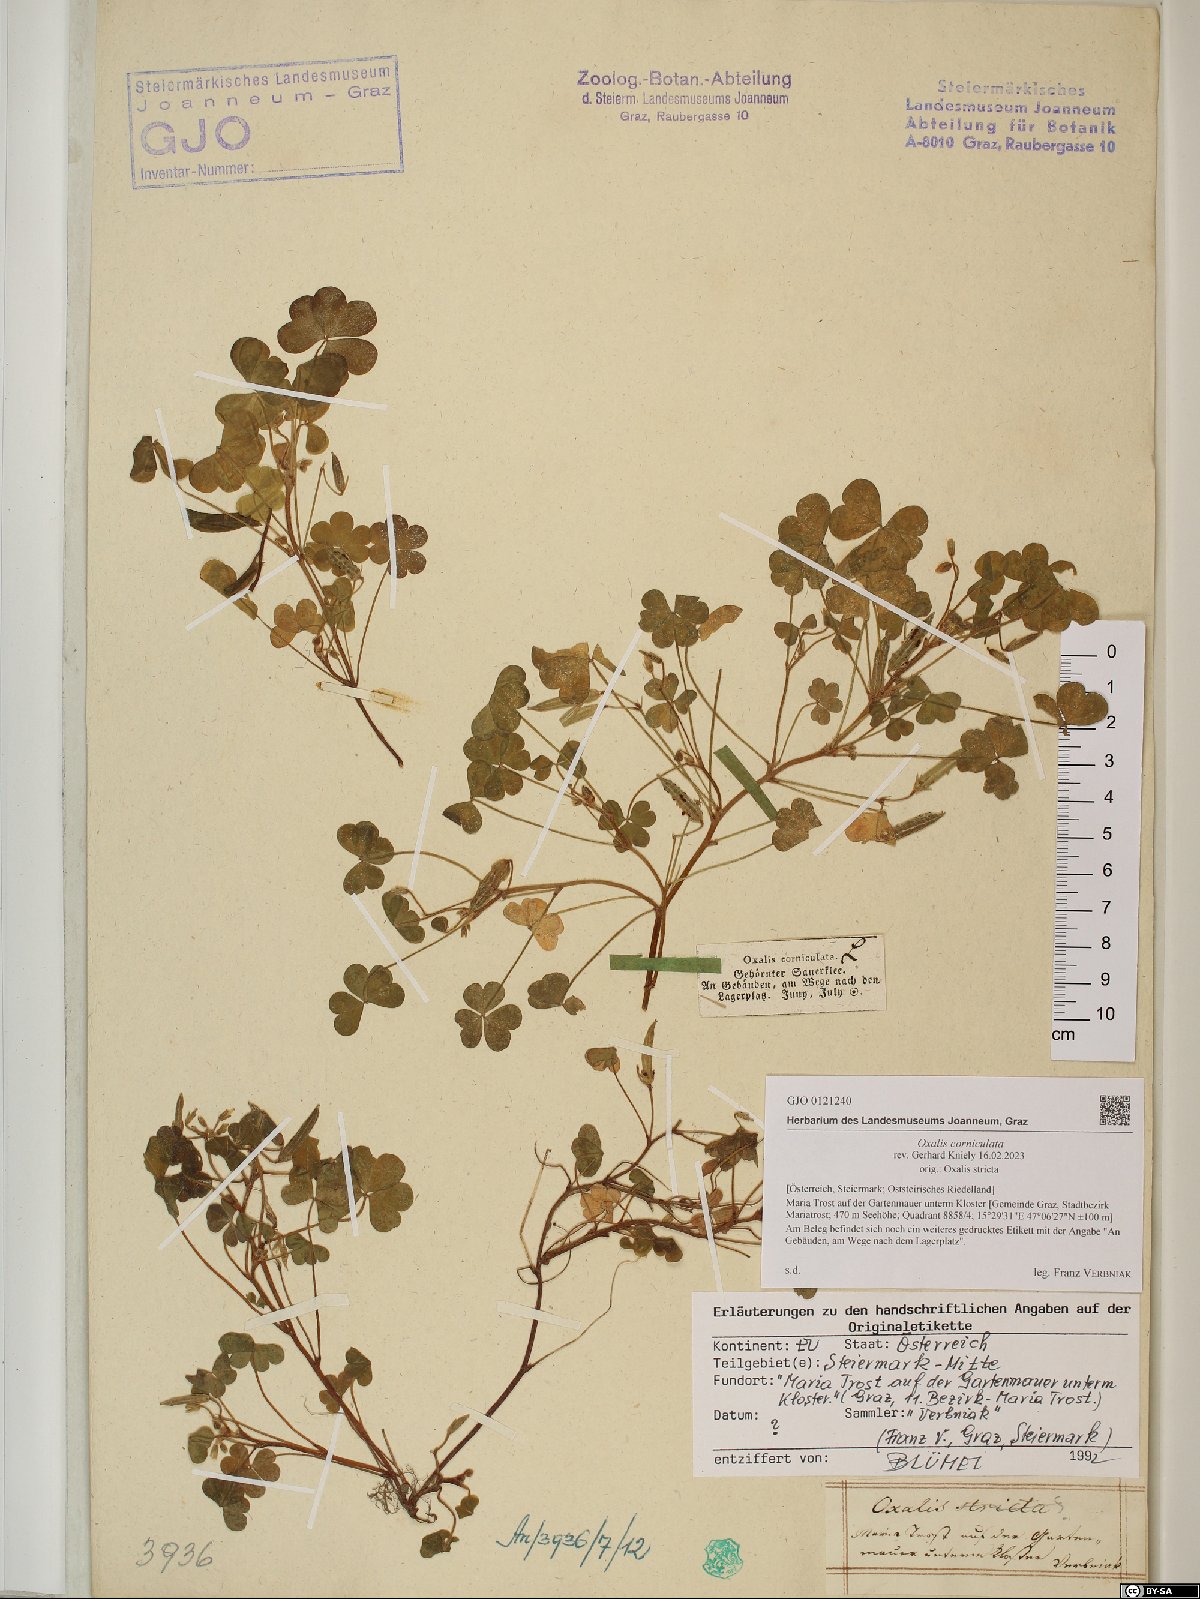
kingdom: Plantae
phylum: Tracheophyta
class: Magnoliopsida
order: Oxalidales
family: Oxalidaceae
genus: Oxalis
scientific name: Oxalis corniculata
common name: Procumbent yellow-sorrel
